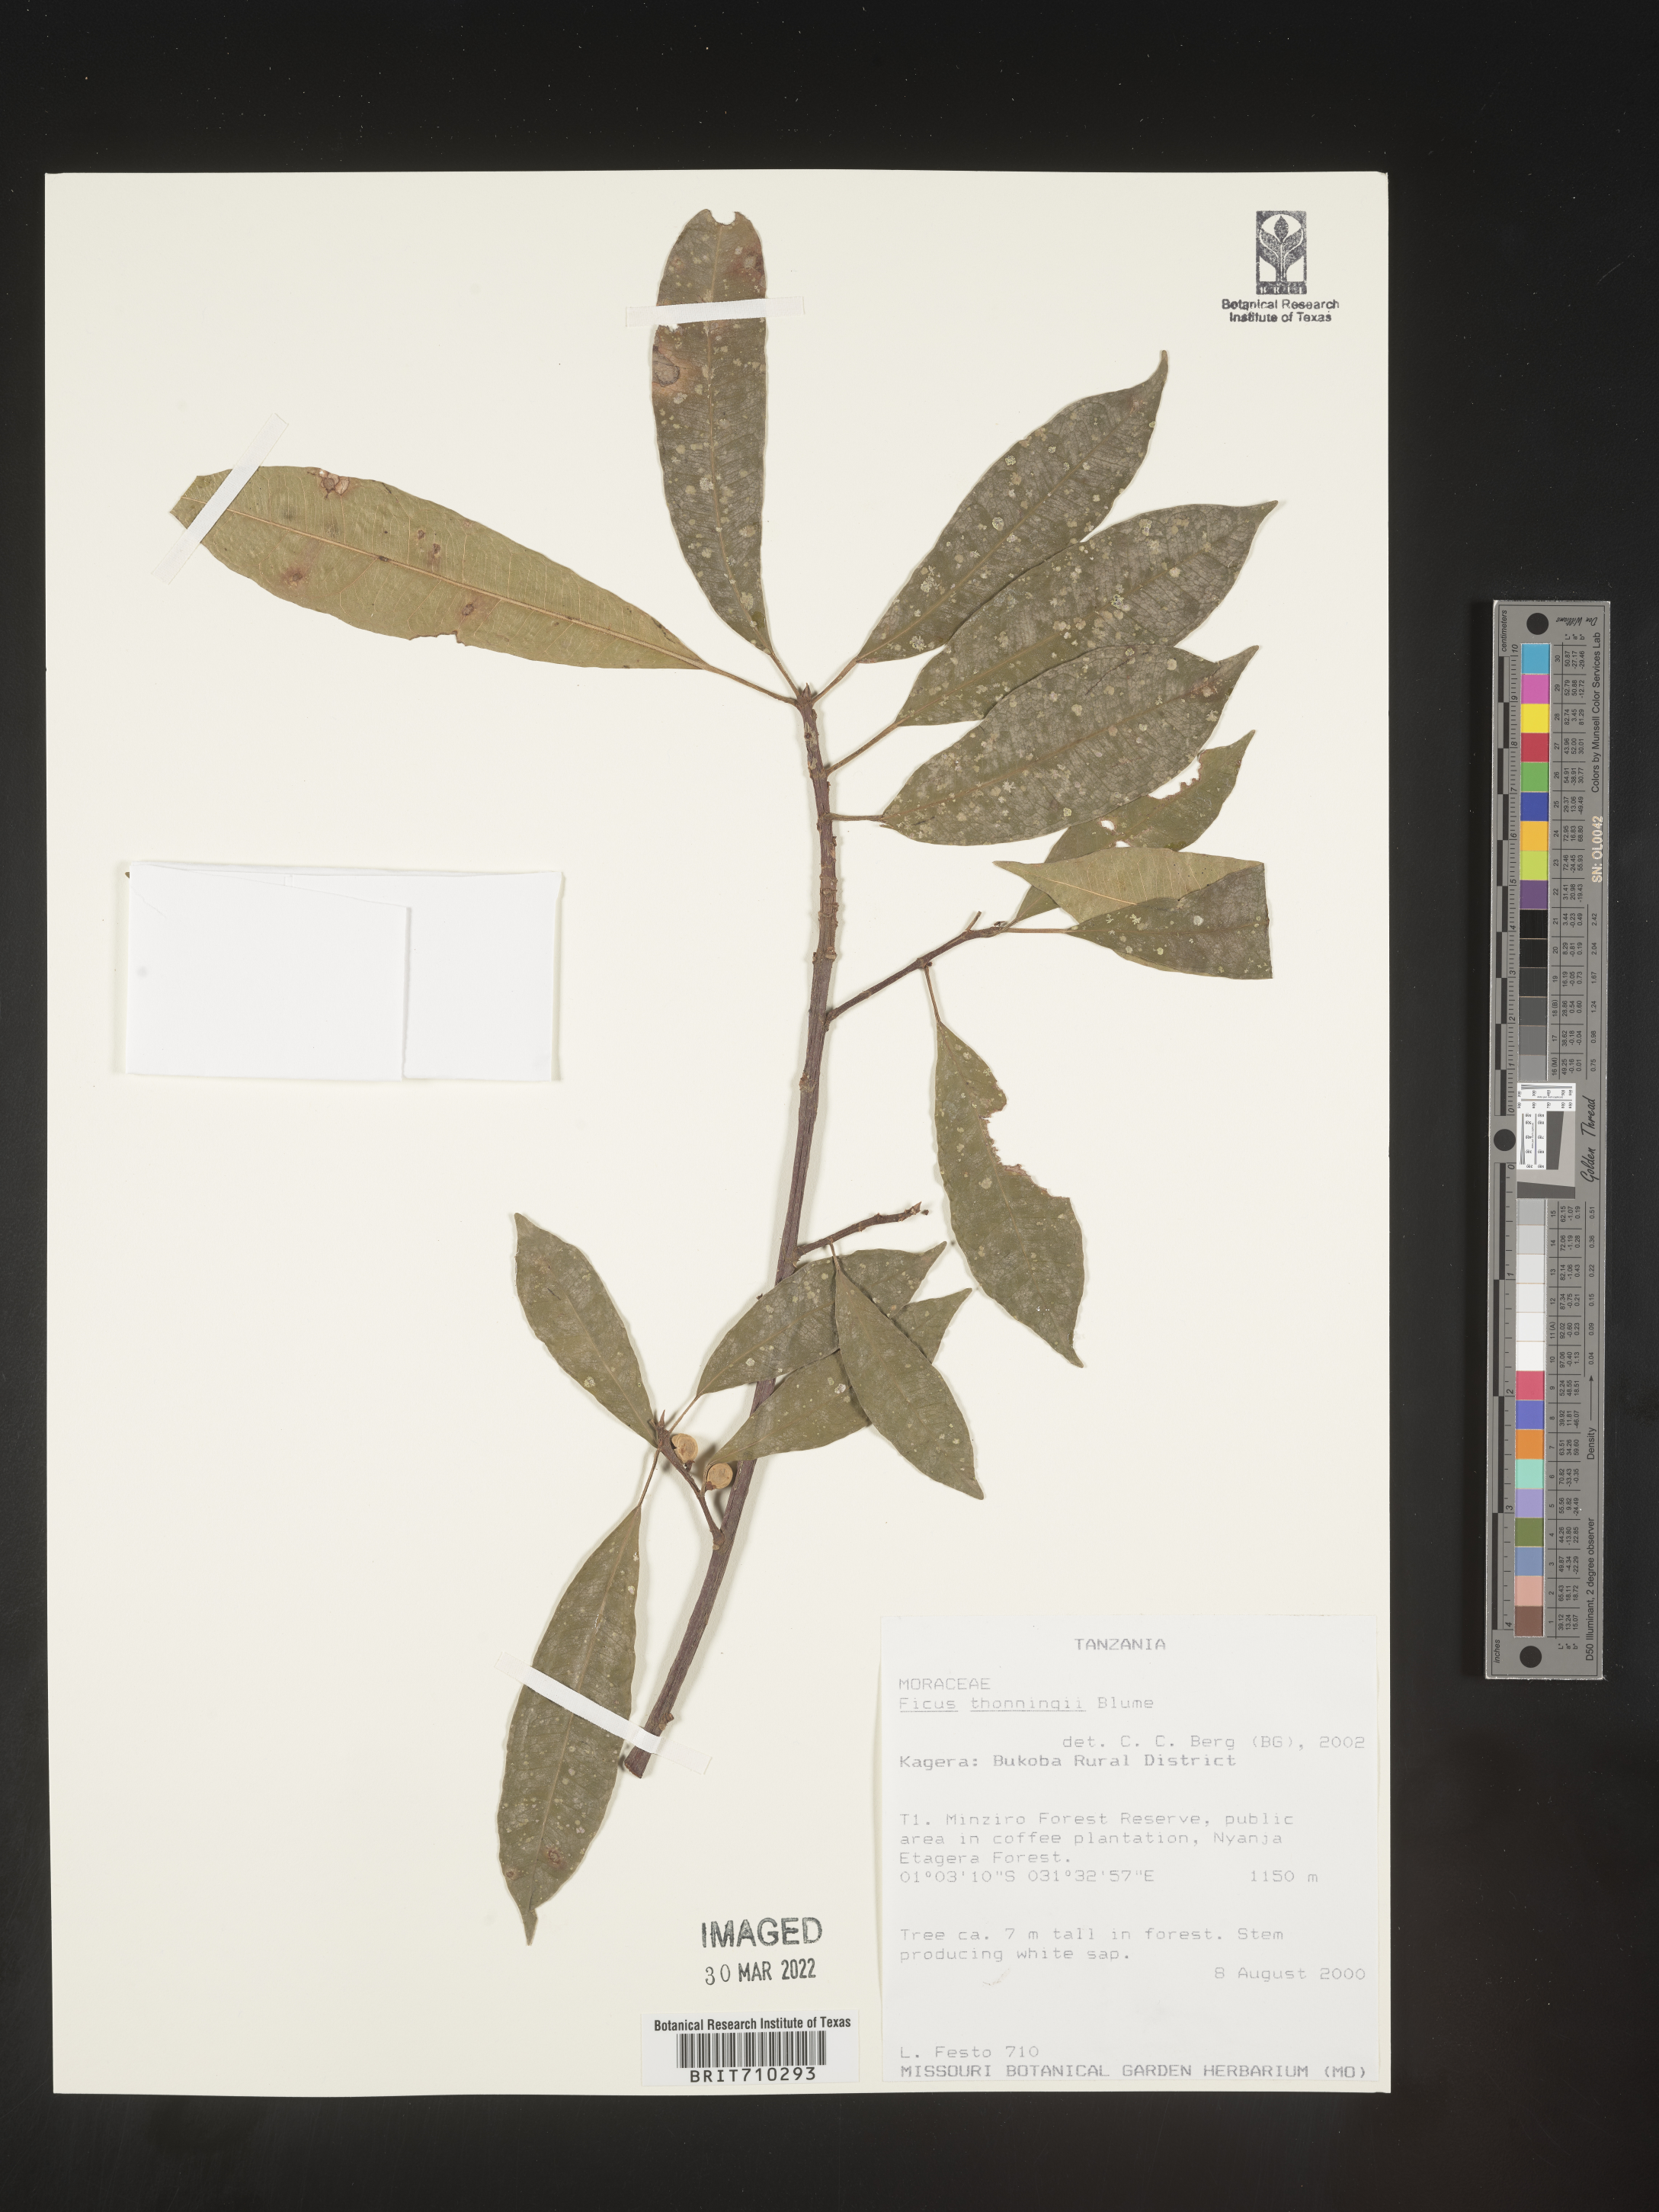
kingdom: Plantae
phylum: Tracheophyta
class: Magnoliopsida
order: Rosales
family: Moraceae
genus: Ficus
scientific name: Ficus
